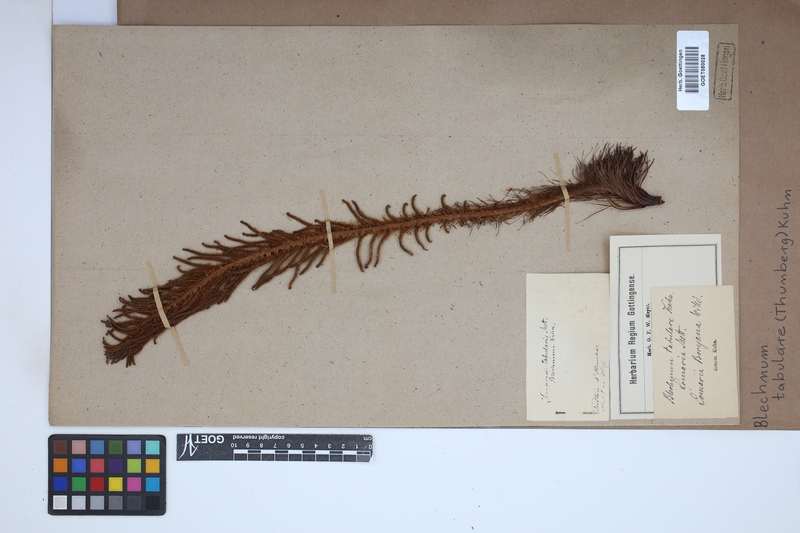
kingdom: Plantae
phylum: Tracheophyta
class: Polypodiopsida
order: Polypodiales
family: Blechnaceae
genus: Lomariocycas
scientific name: Lomariocycas tabularis
